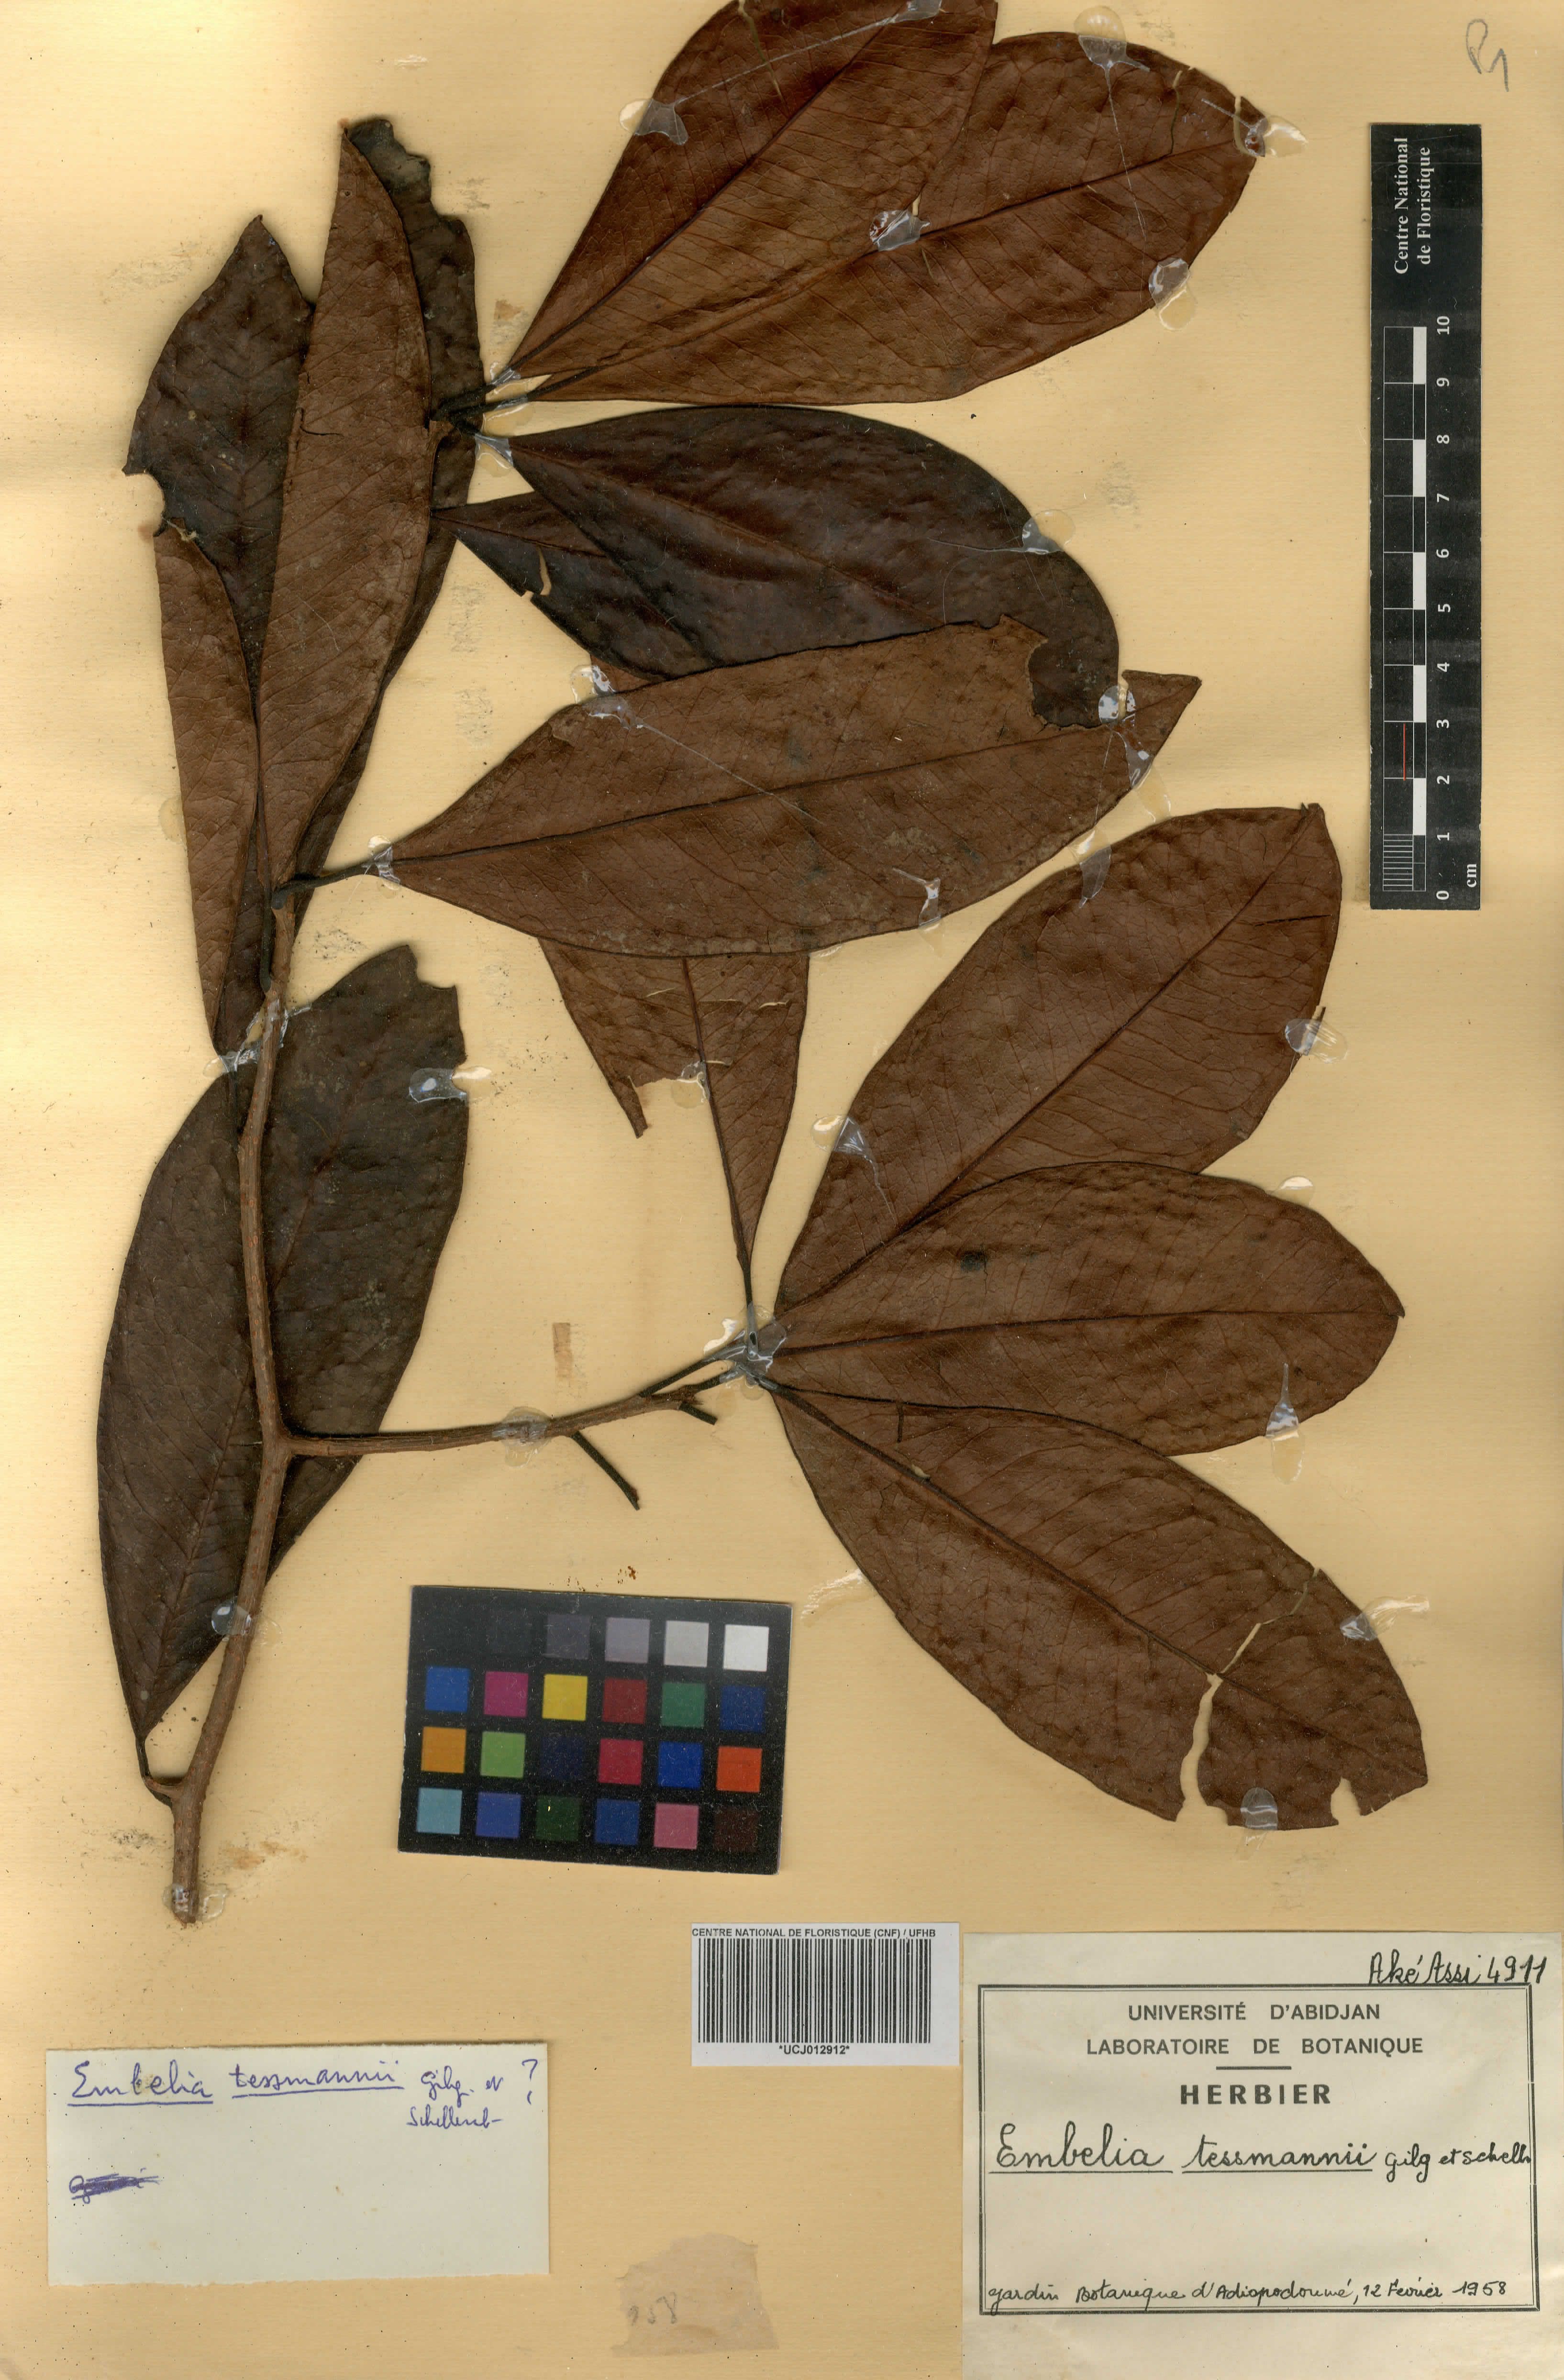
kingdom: Plantae
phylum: Tracheophyta
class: Magnoliopsida
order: Ericales
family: Primulaceae
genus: Embelia
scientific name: Embelia schimperi
